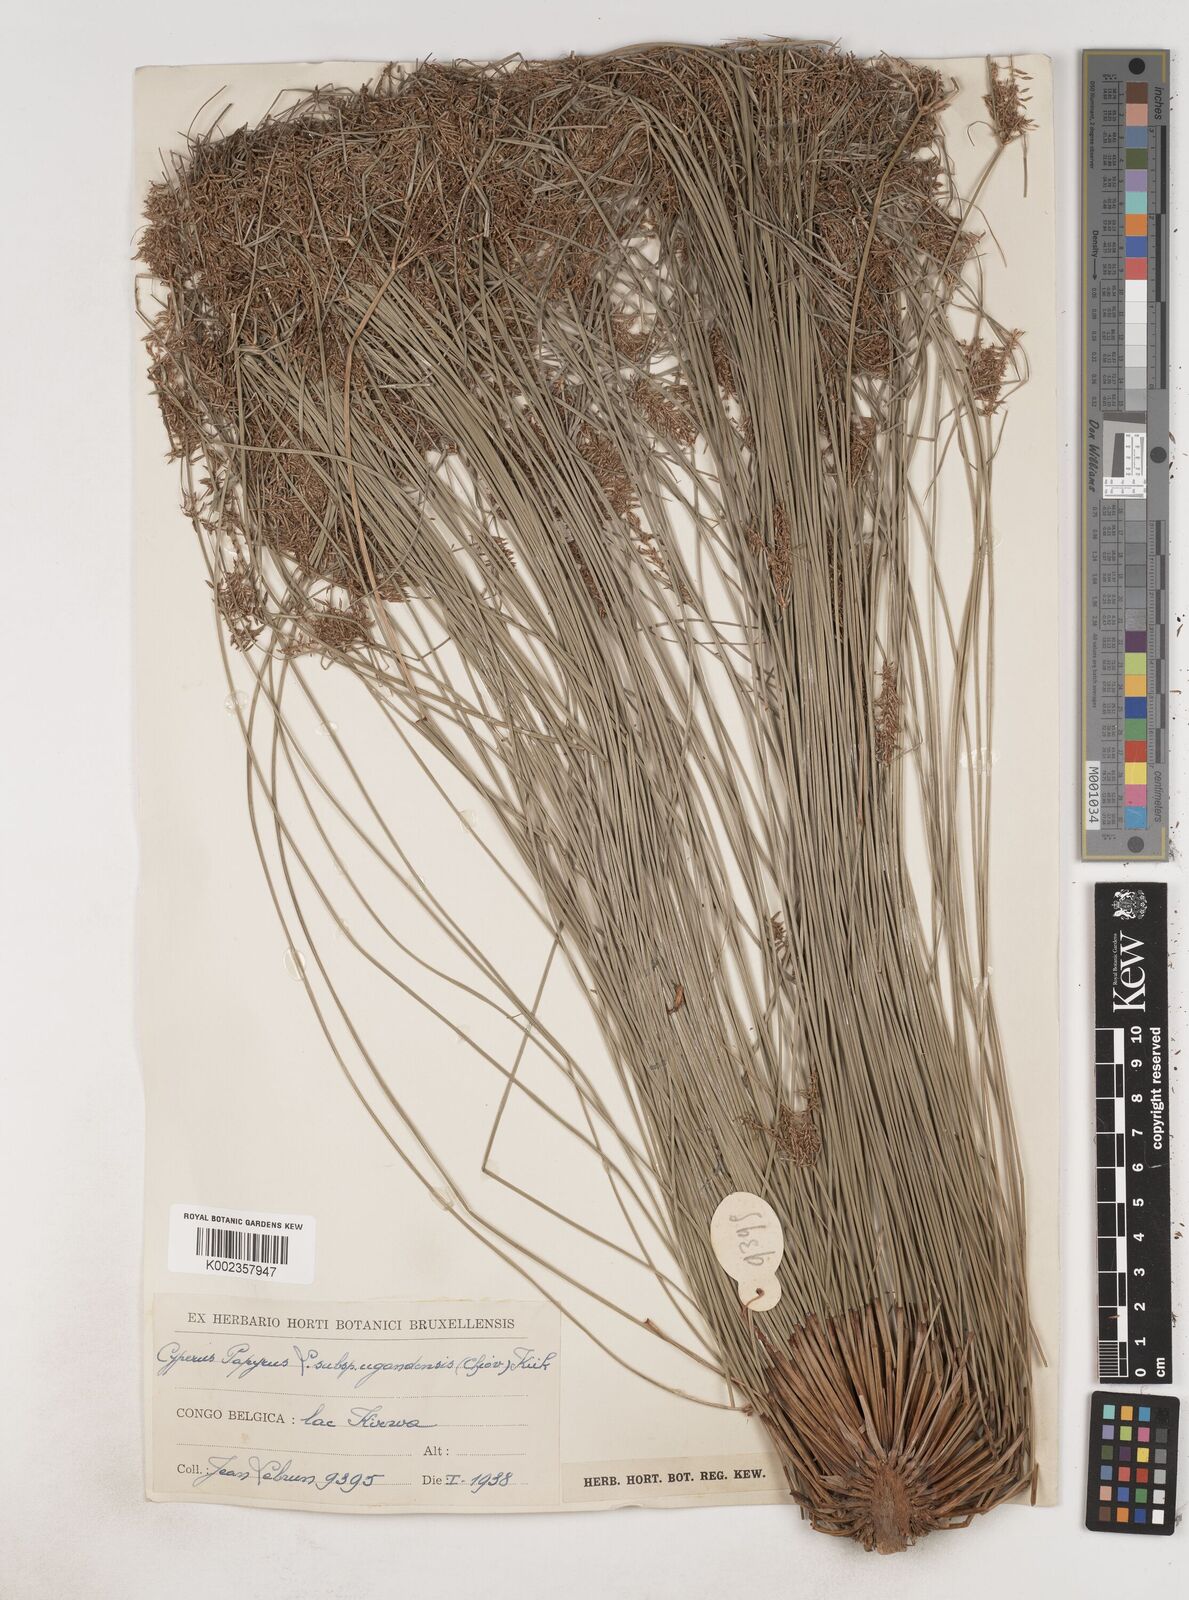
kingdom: Plantae
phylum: Tracheophyta
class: Liliopsida
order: Poales
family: Cyperaceae
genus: Cyperus
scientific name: Cyperus papyrus
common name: Papyrus
